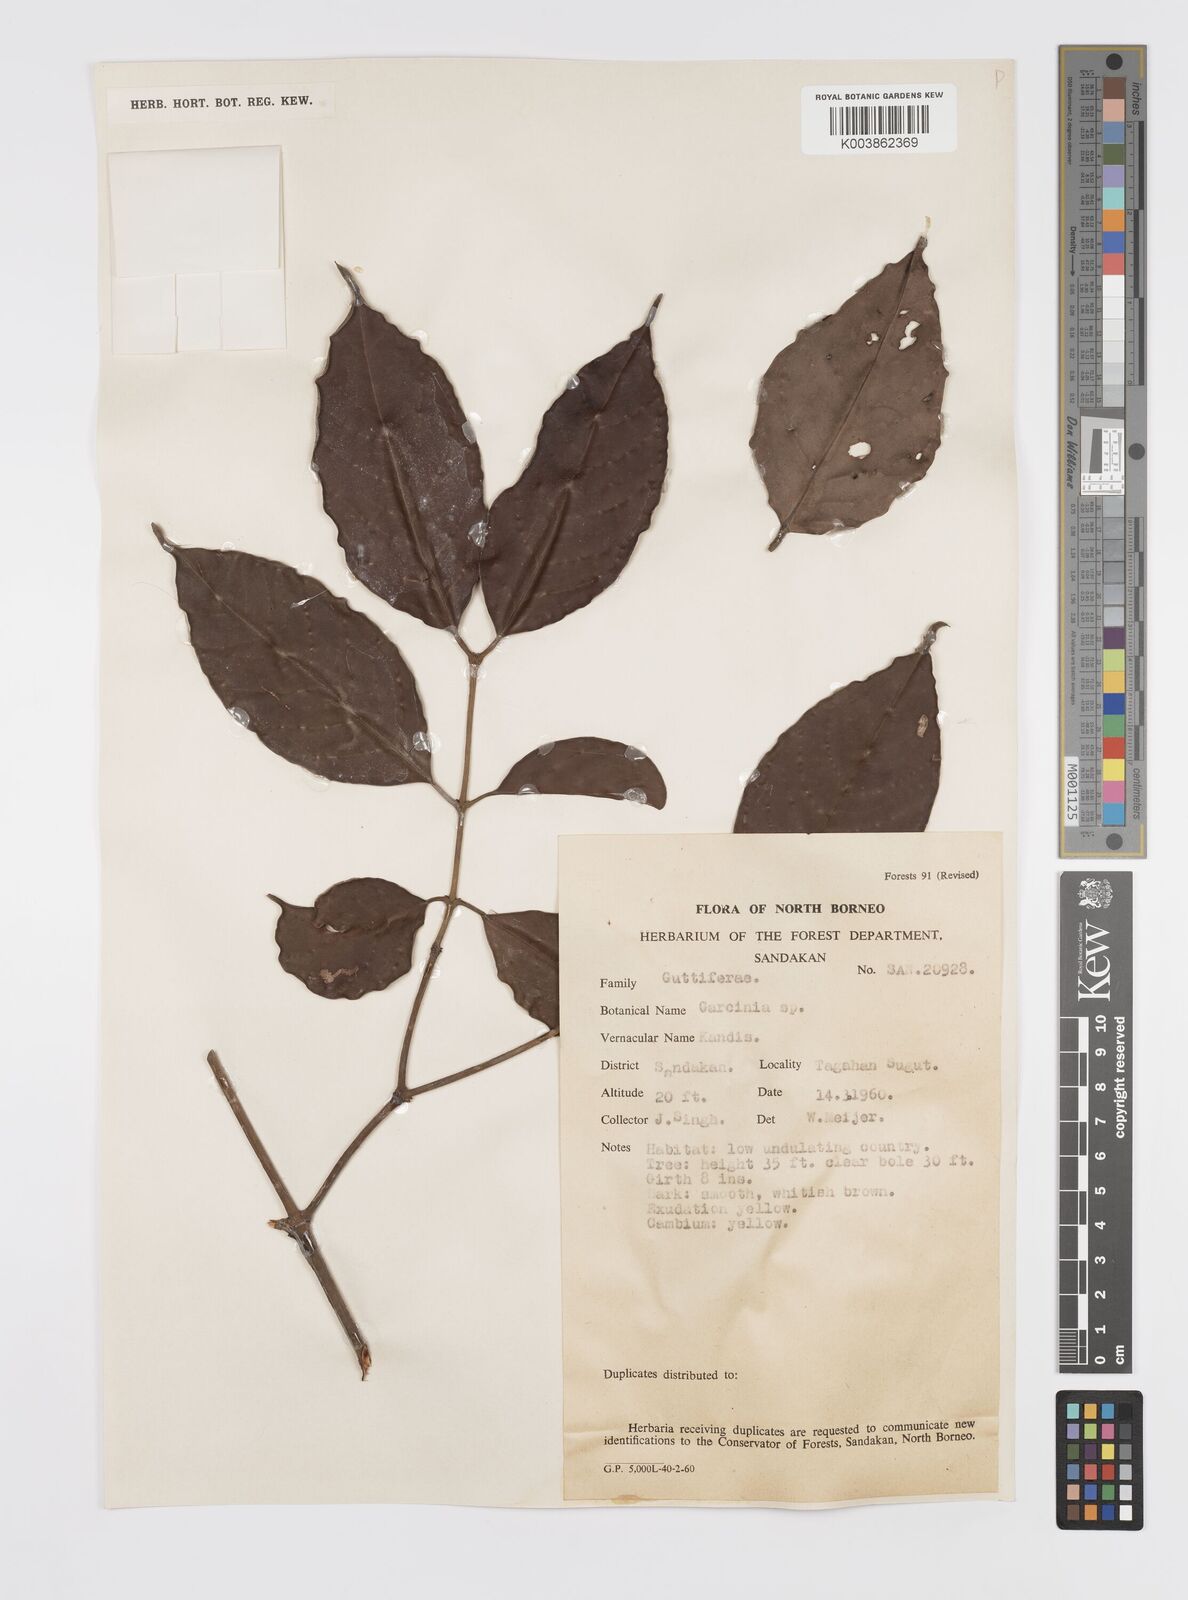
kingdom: Plantae
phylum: Tracheophyta
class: Magnoliopsida
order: Malpighiales
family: Clusiaceae
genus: Garcinia
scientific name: Garcinia
